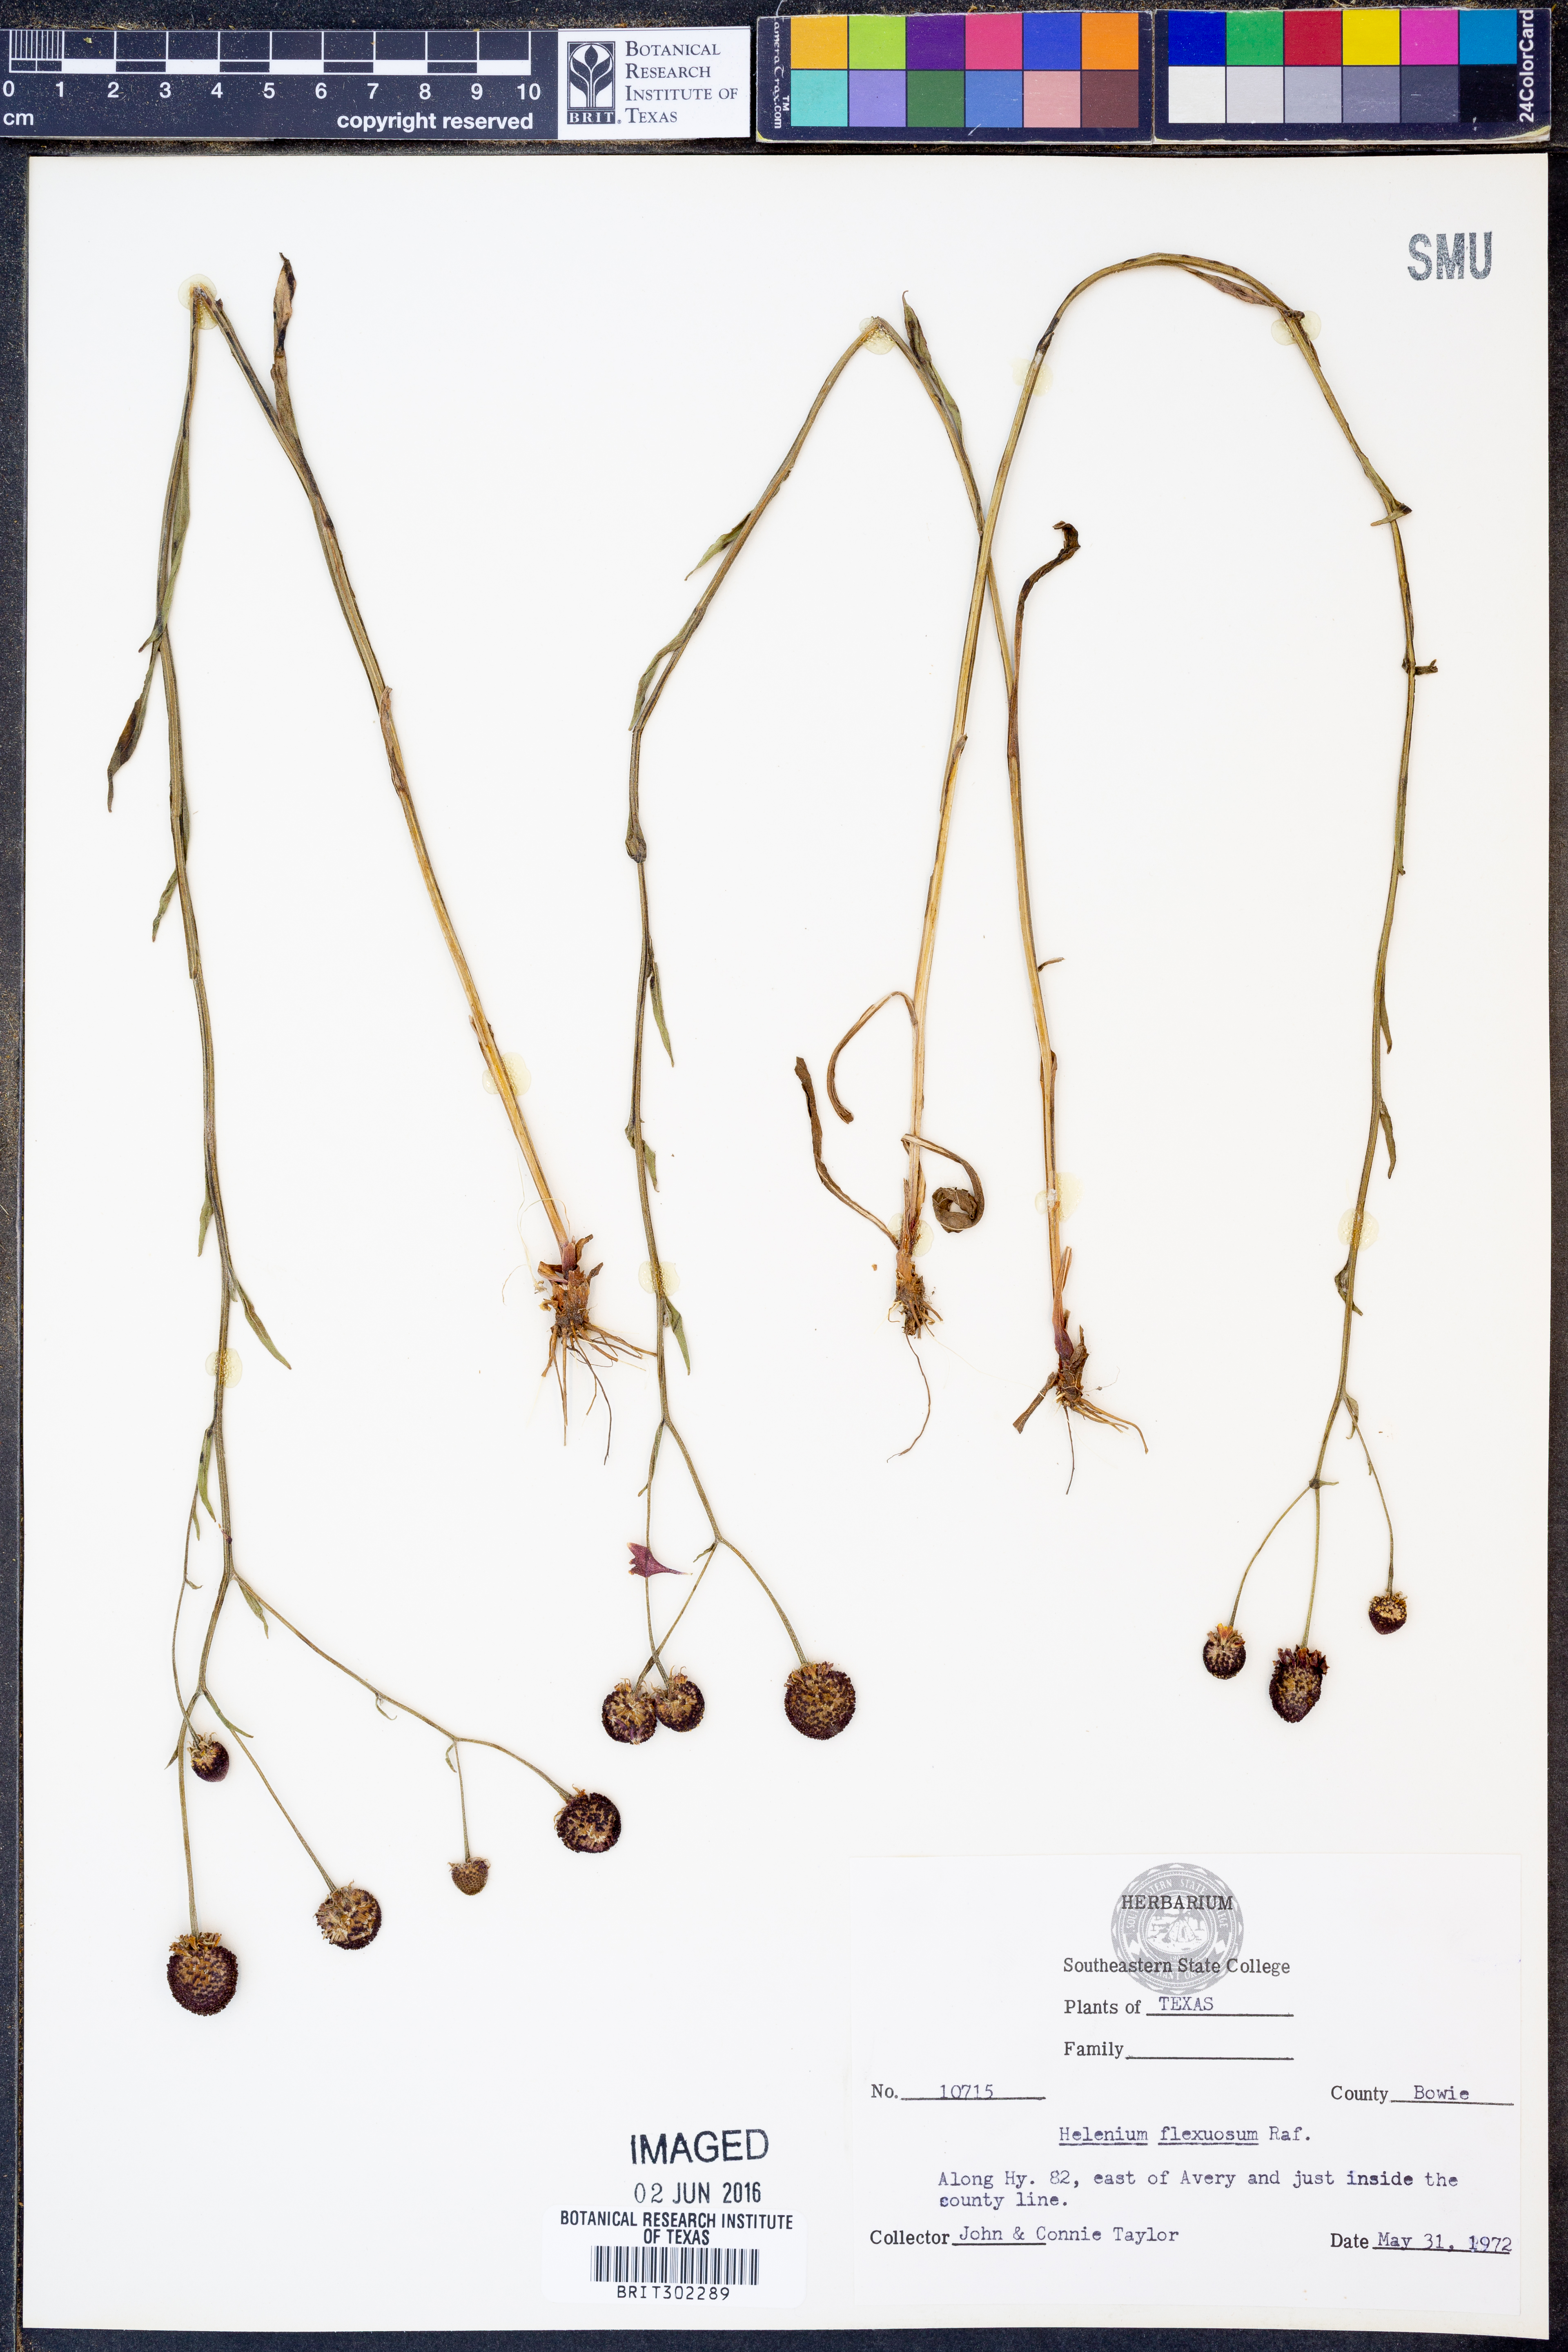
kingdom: Plantae
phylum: Tracheophyta
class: Magnoliopsida
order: Asterales
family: Asteraceae
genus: Helenium
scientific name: Helenium flexuosum
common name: Naked-flowered sneezeweed
